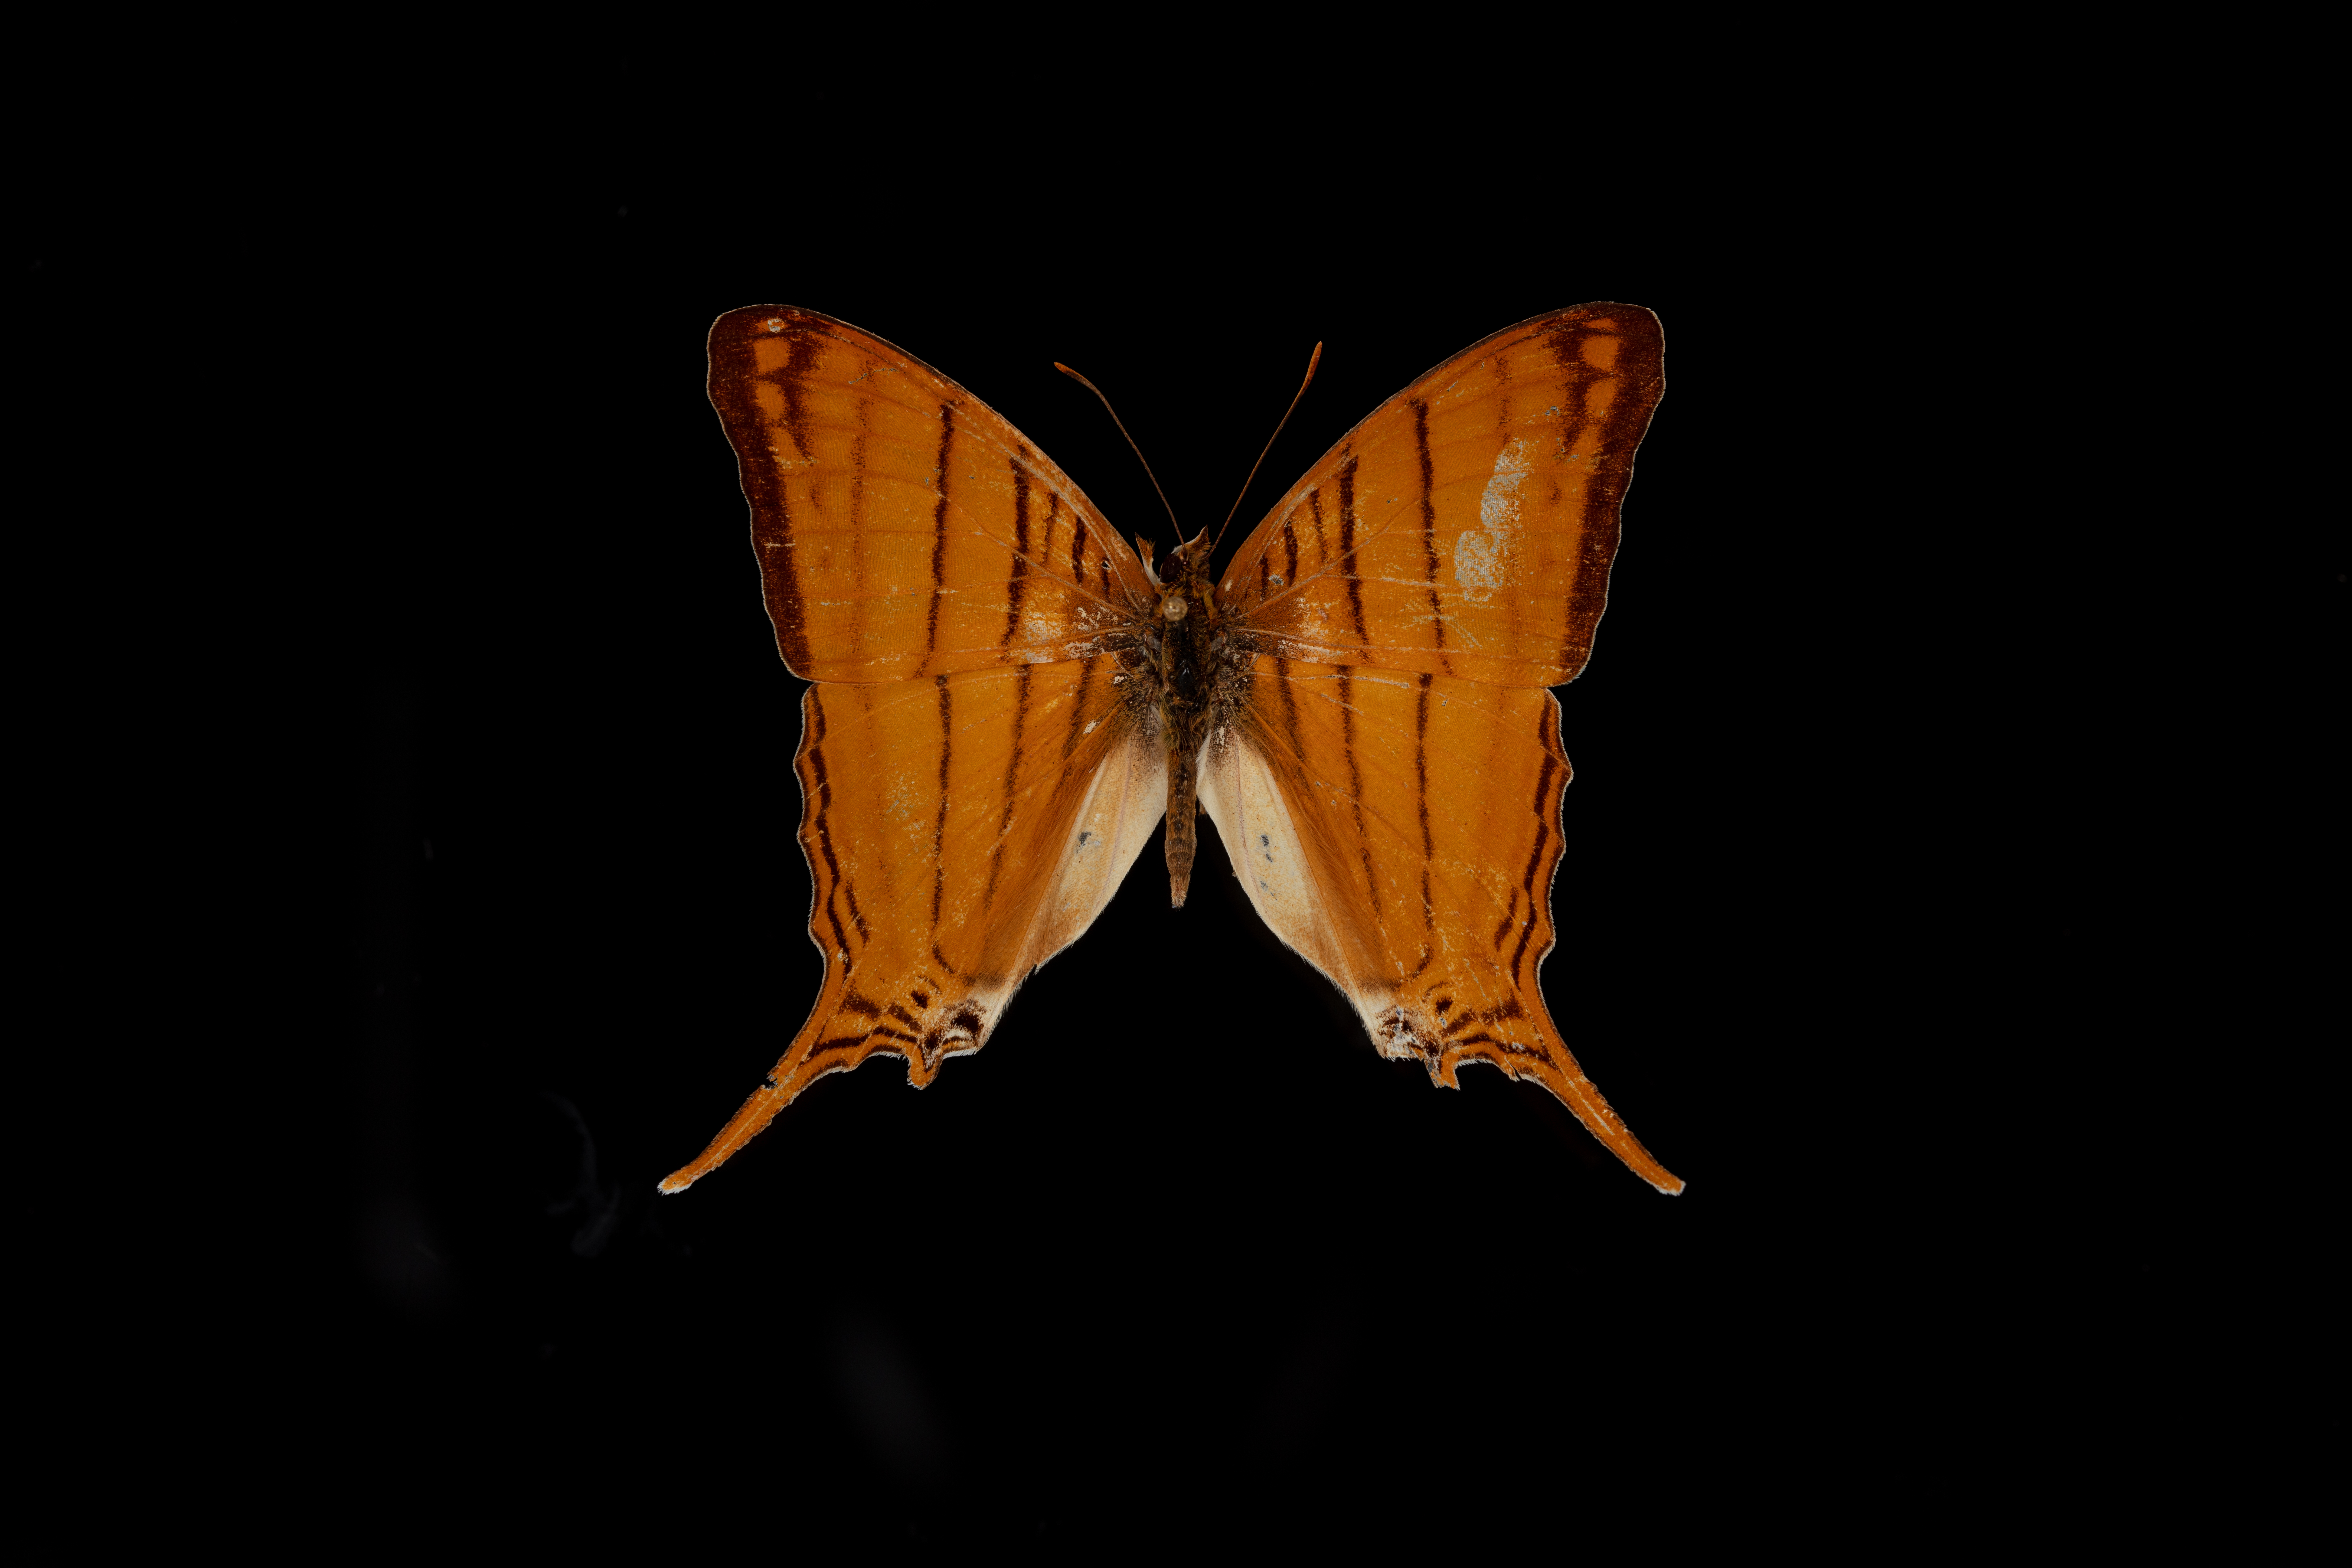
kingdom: Animalia
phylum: Arthropoda
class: Insecta
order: Lepidoptera
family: Nymphalidae
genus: Marpesia
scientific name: Marpesia berania
